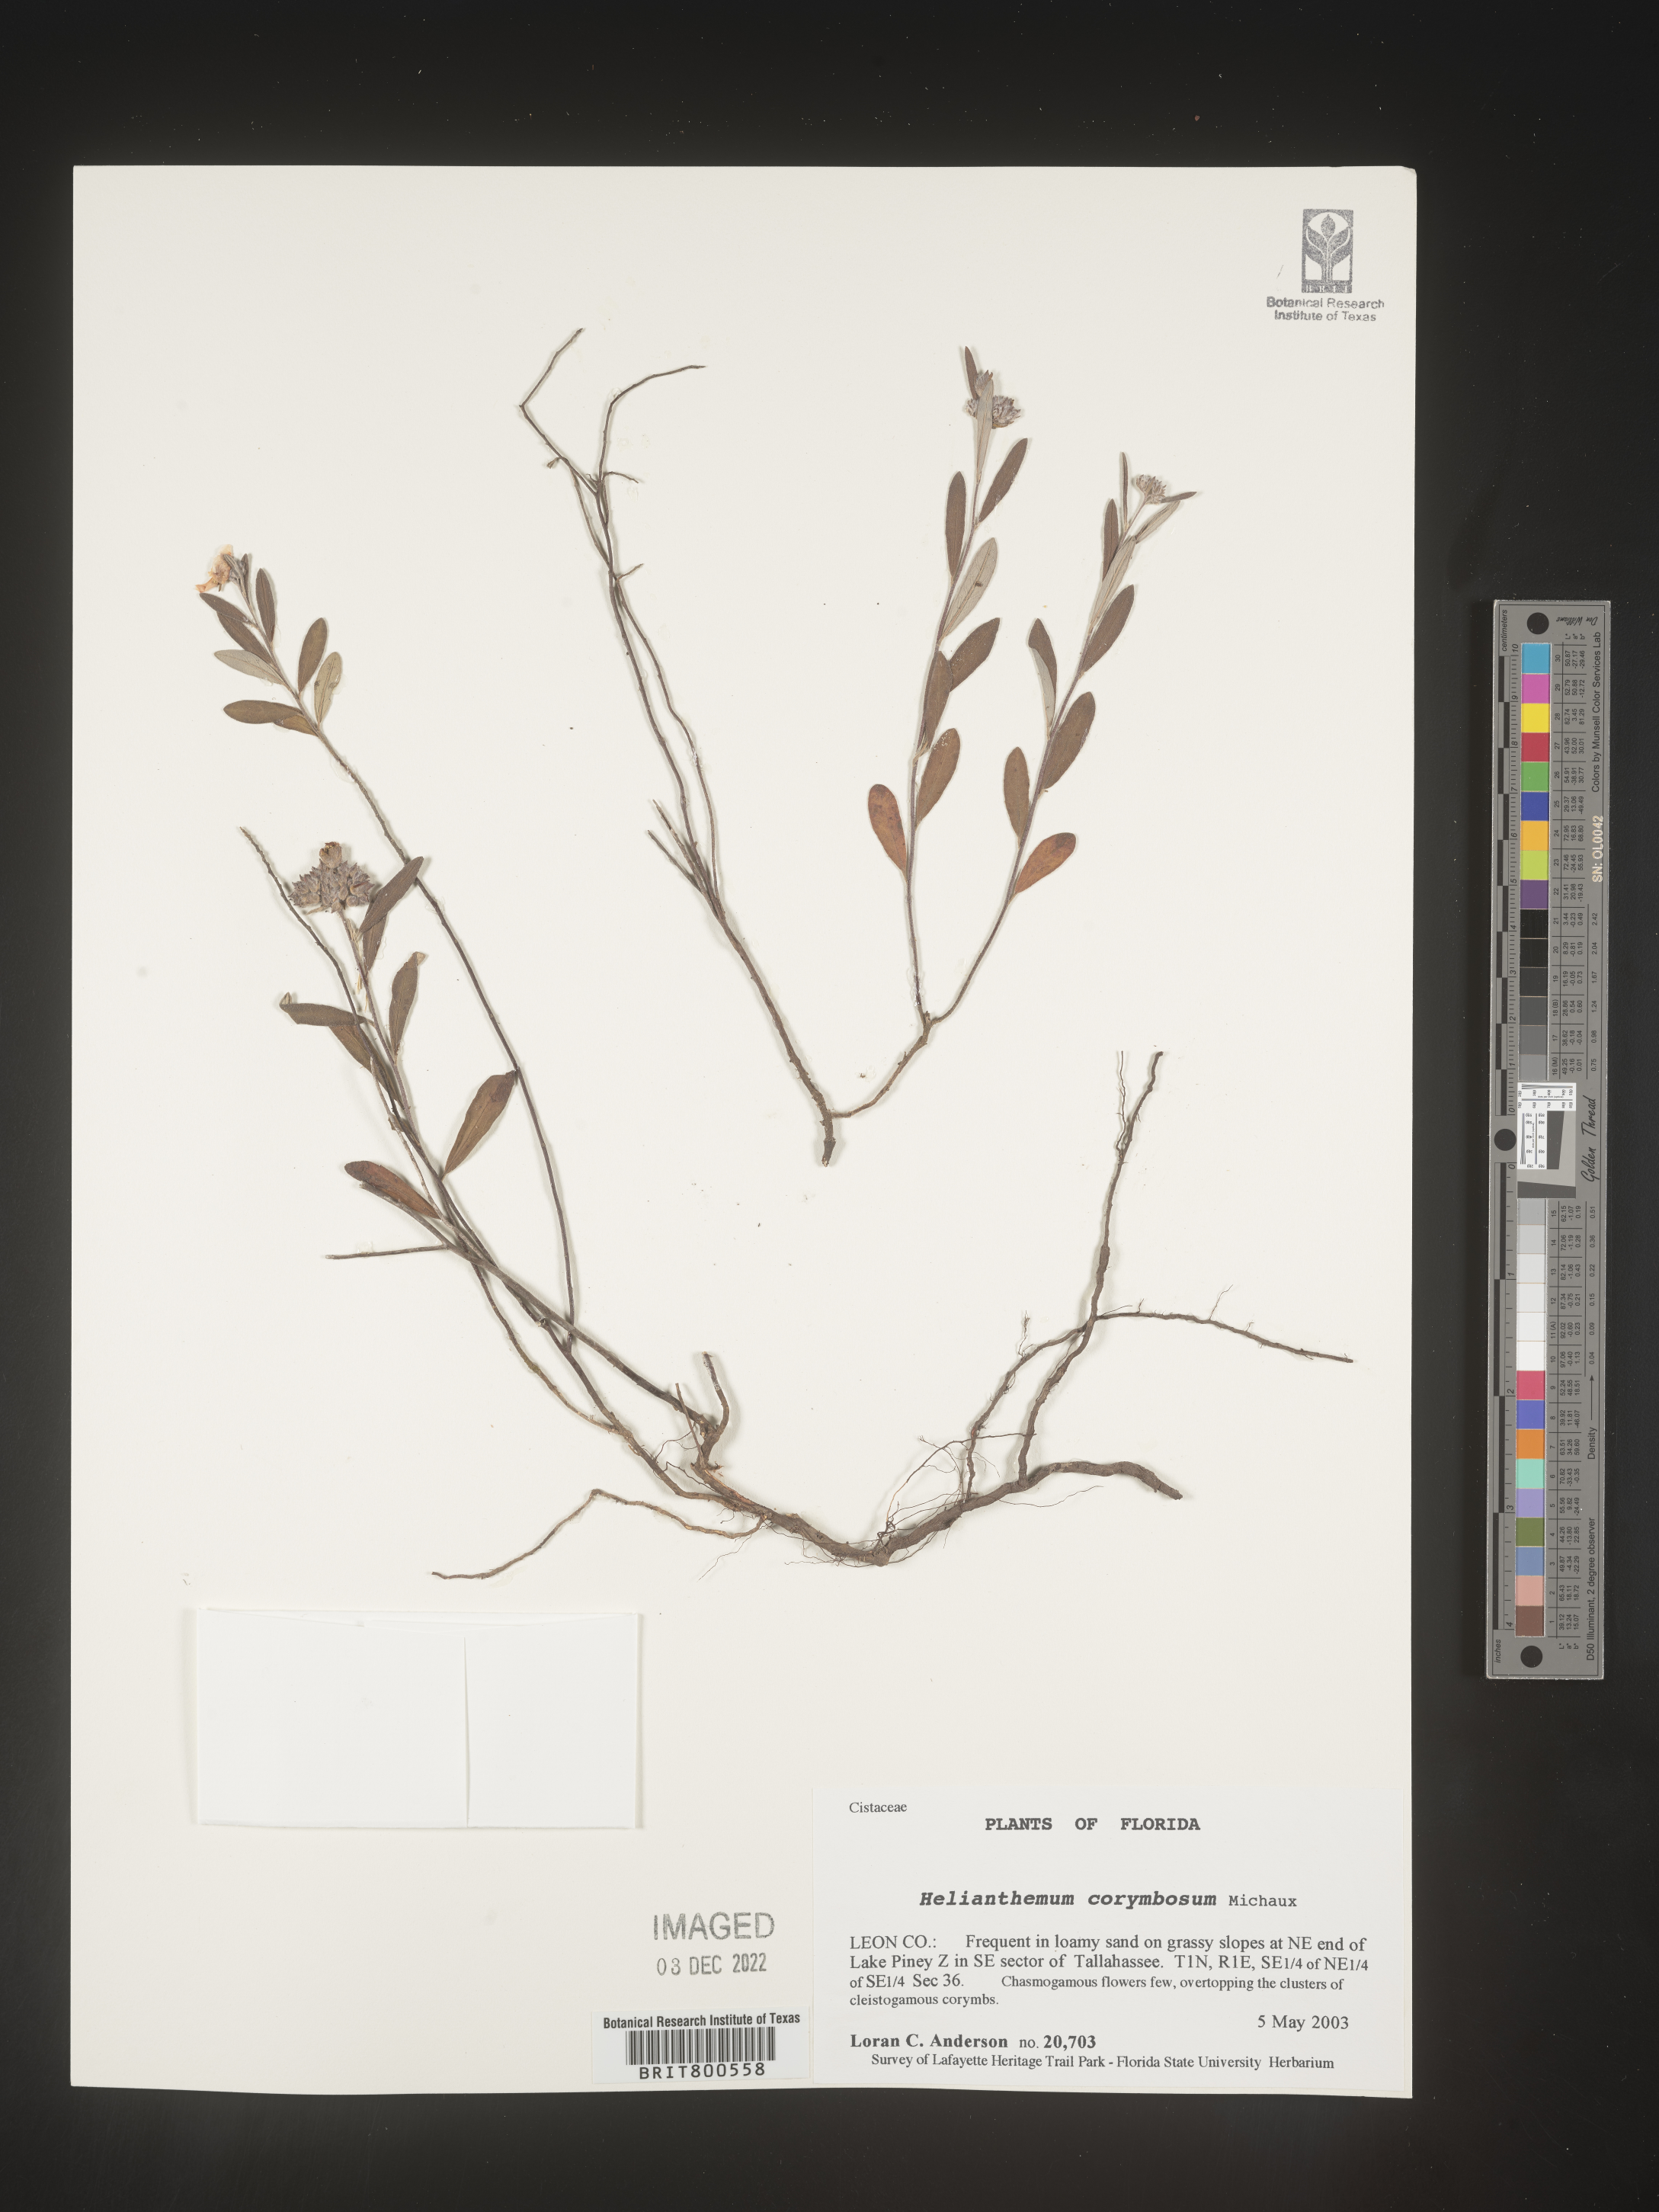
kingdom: Plantae
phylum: Tracheophyta
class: Magnoliopsida
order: Malvales
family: Cistaceae
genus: Crocanthemum
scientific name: Crocanthemum corymbosum
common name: Pinebarren sun-rose
